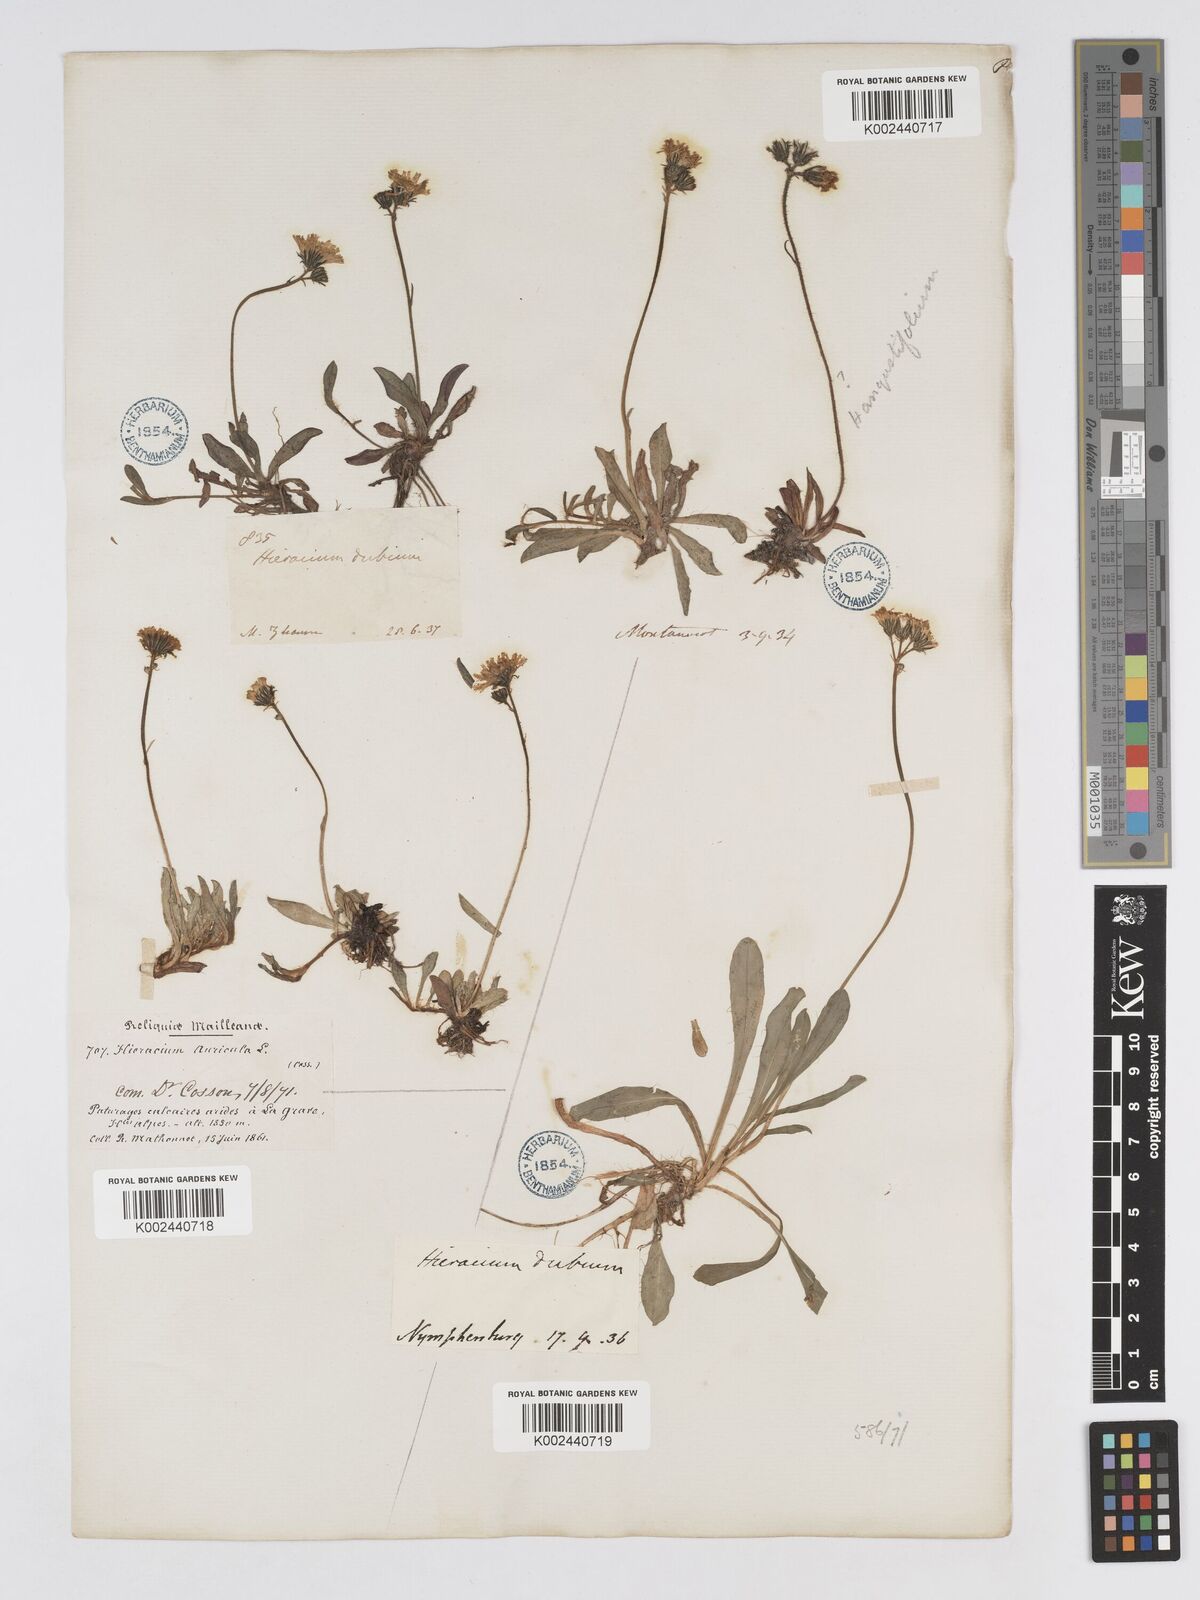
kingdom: Plantae
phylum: Tracheophyta
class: Magnoliopsida
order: Asterales
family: Asteraceae
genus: Pilosella
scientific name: Pilosella floribunda
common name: Glaucous hawkweed
